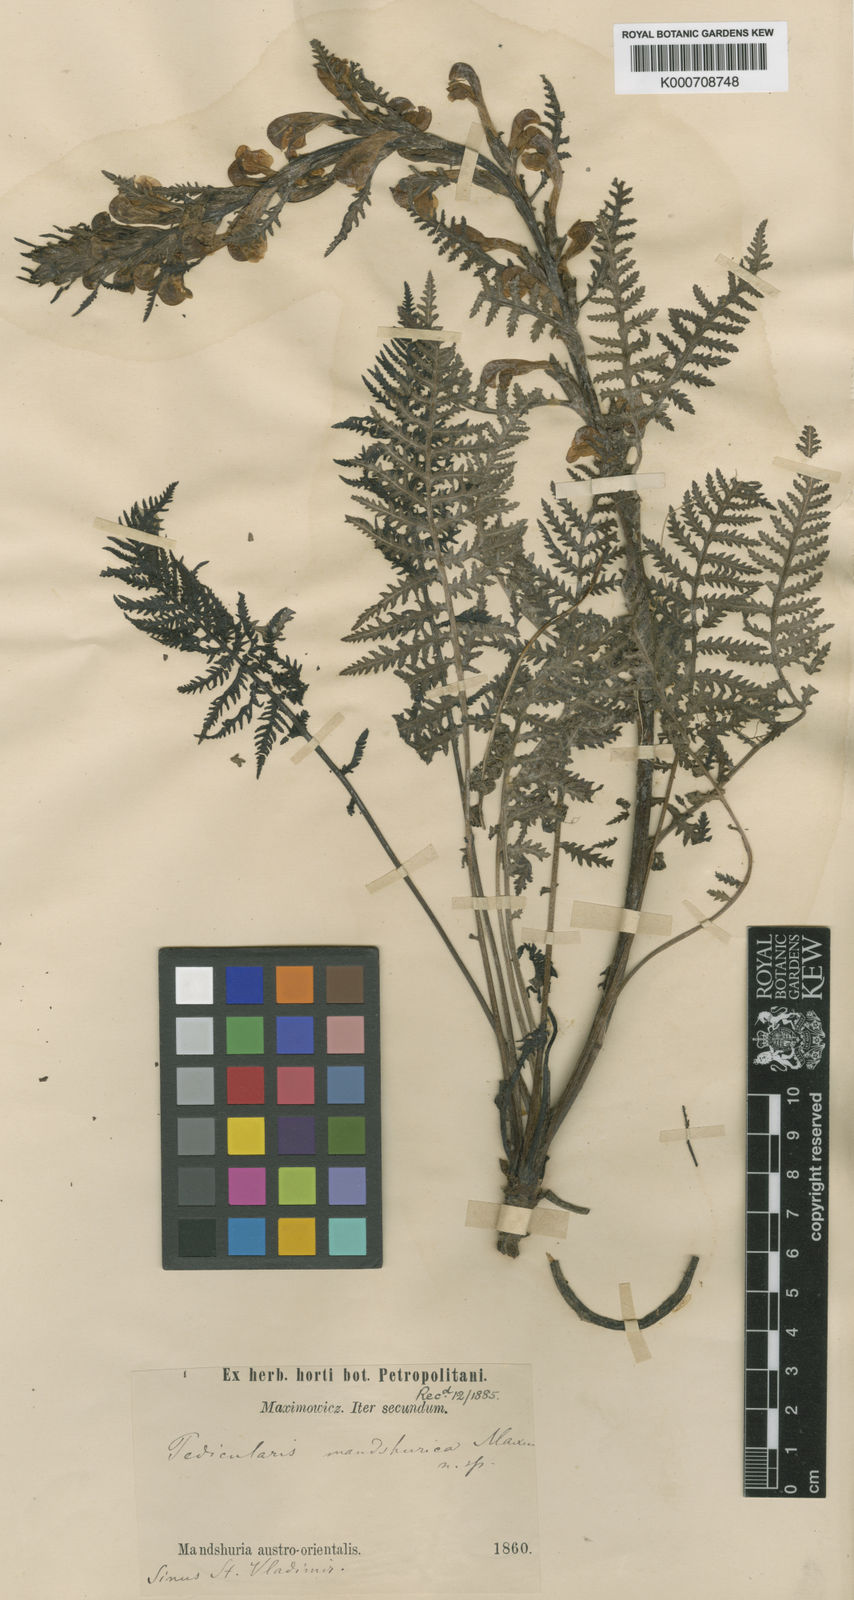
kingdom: Plantae
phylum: Tracheophyta
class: Magnoliopsida
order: Lamiales
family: Orobanchaceae
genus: Pedicularis
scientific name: Pedicularis mandshurica
